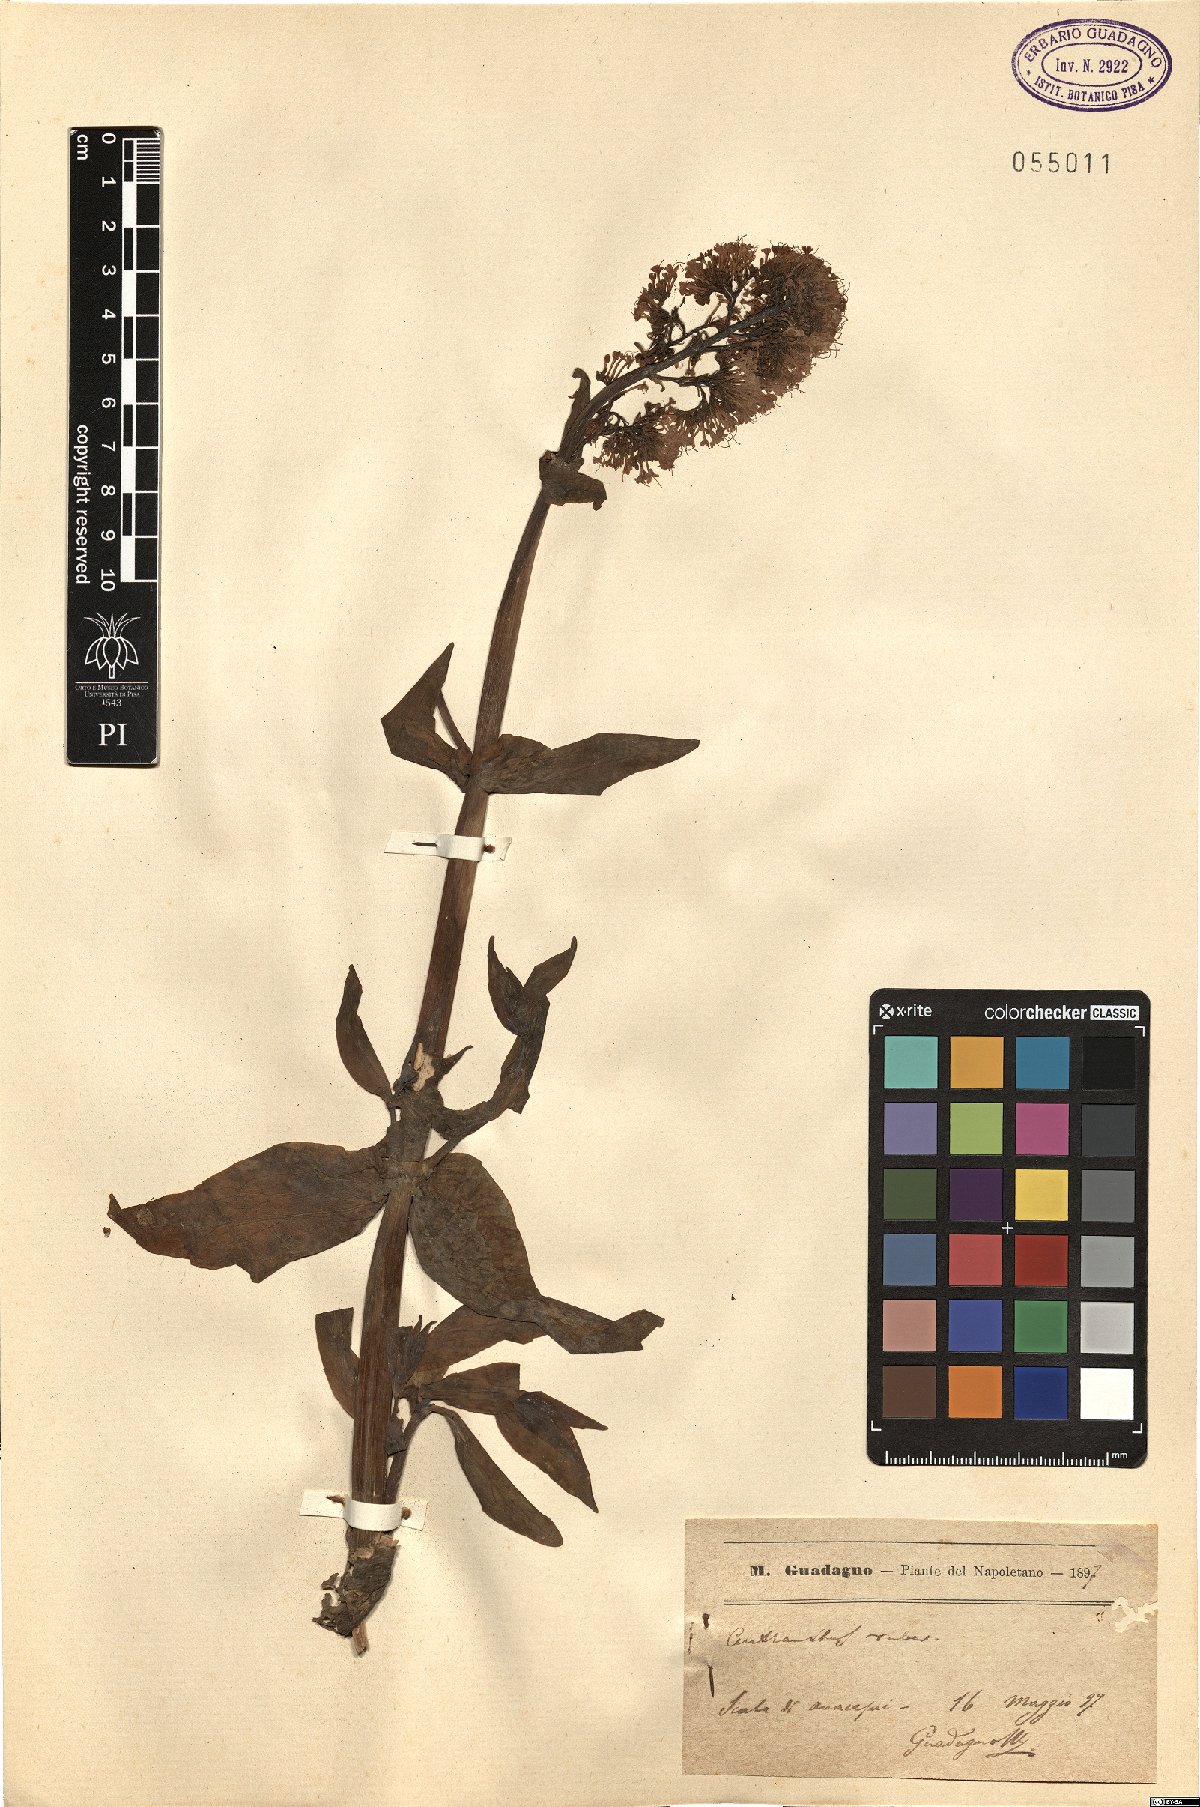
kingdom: Plantae
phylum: Tracheophyta
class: Magnoliopsida
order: Dipsacales
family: Caprifoliaceae
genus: Centranthus
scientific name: Centranthus ruber
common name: Red valerian
